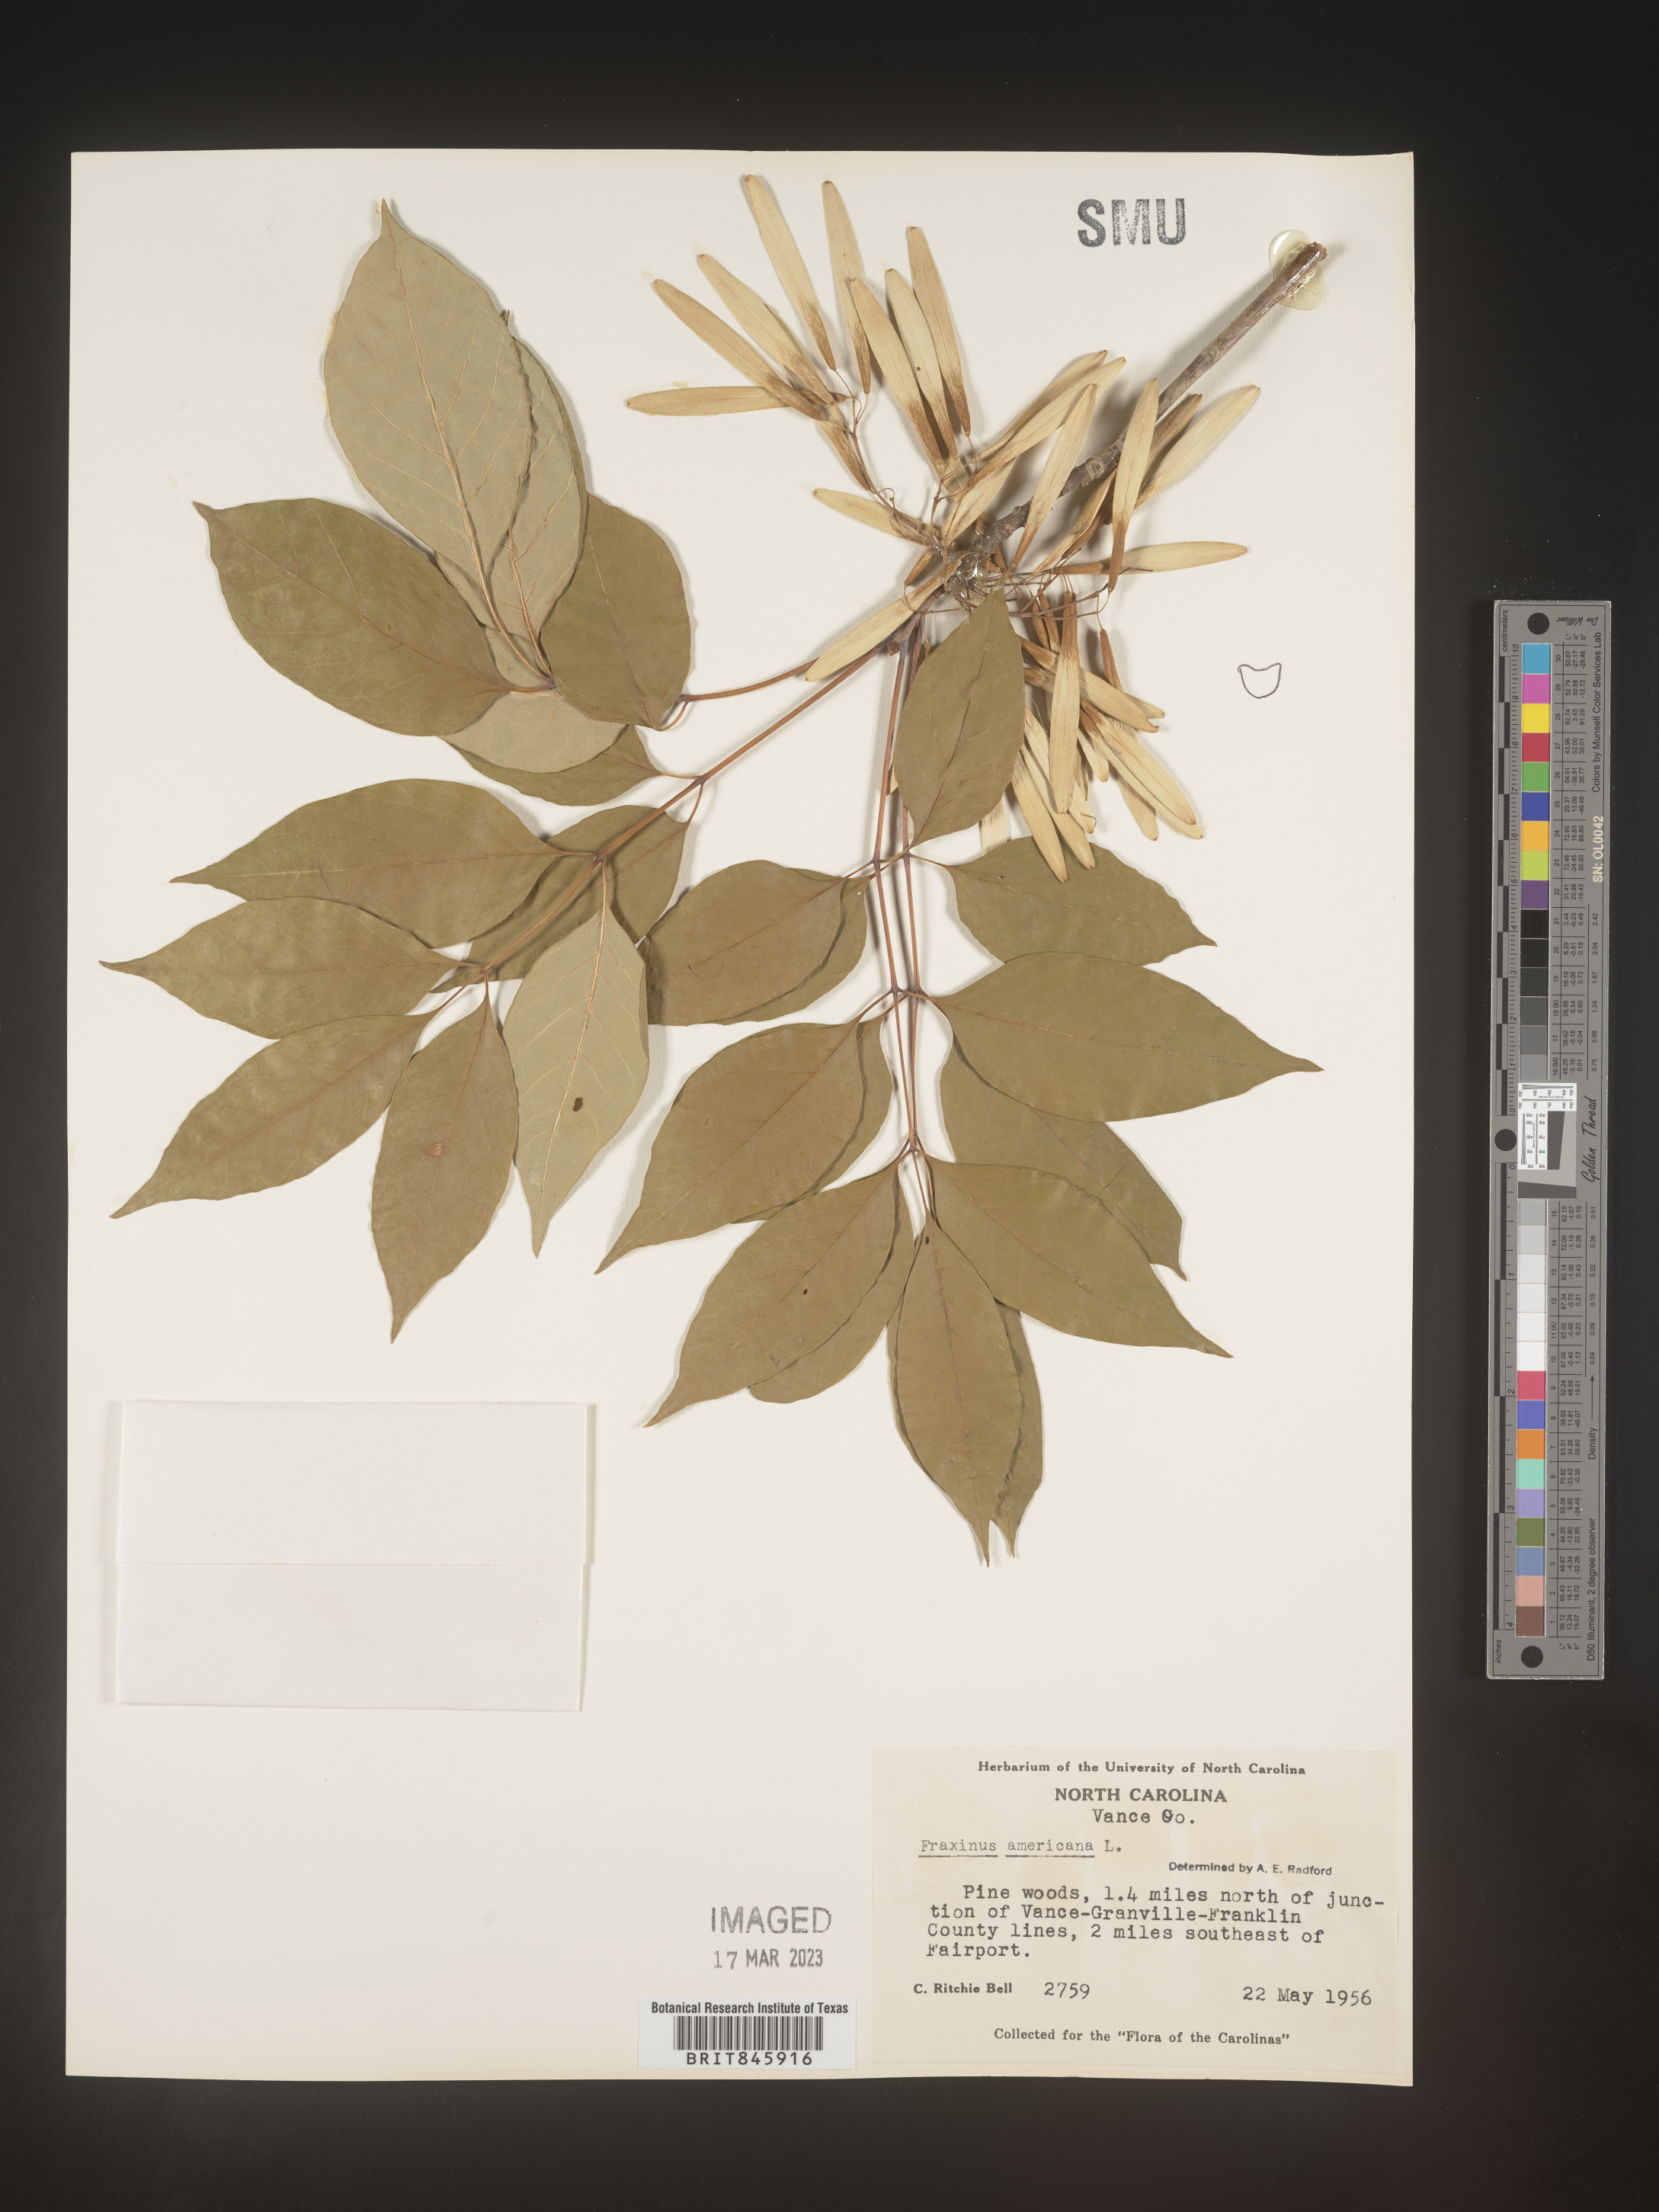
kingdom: Plantae
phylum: Tracheophyta
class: Magnoliopsida
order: Lamiales
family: Oleaceae
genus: Fraxinus
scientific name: Fraxinus americana
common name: White ash
